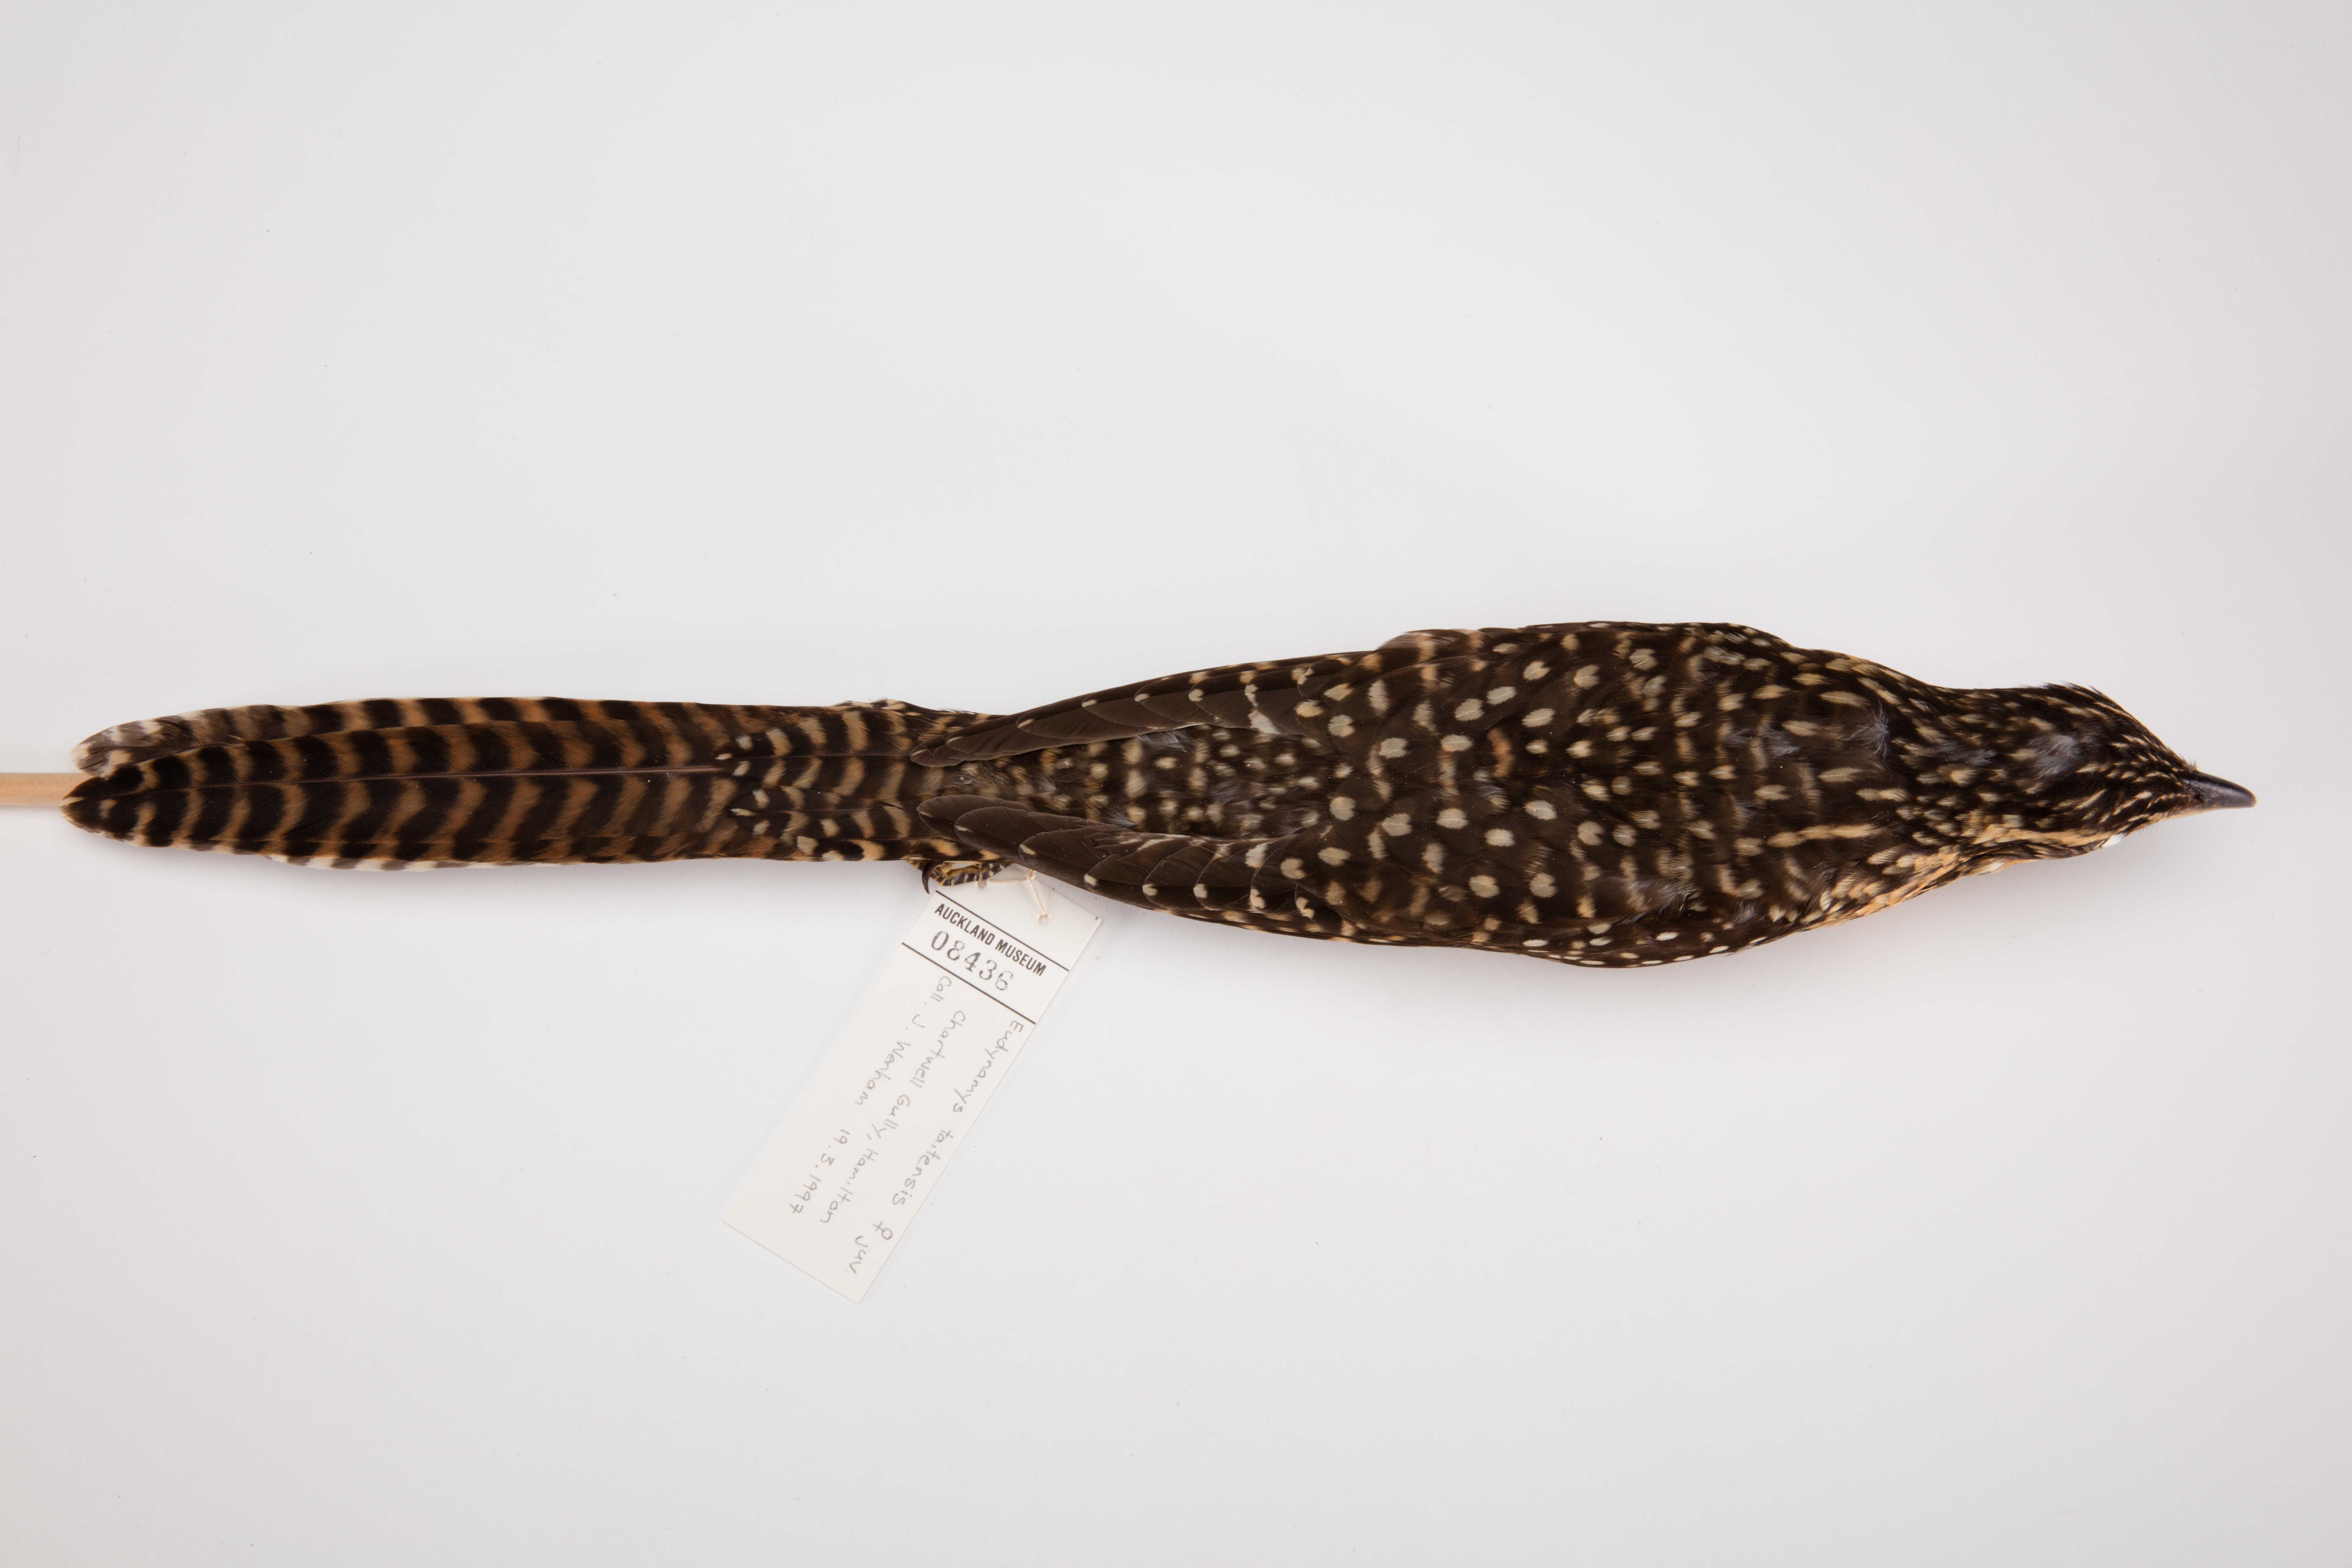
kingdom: Animalia
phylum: Chordata
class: Aves
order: Cuculiformes
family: Cuculidae
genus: Urodynamis
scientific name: Urodynamis taitensis
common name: Long-tailed koel
